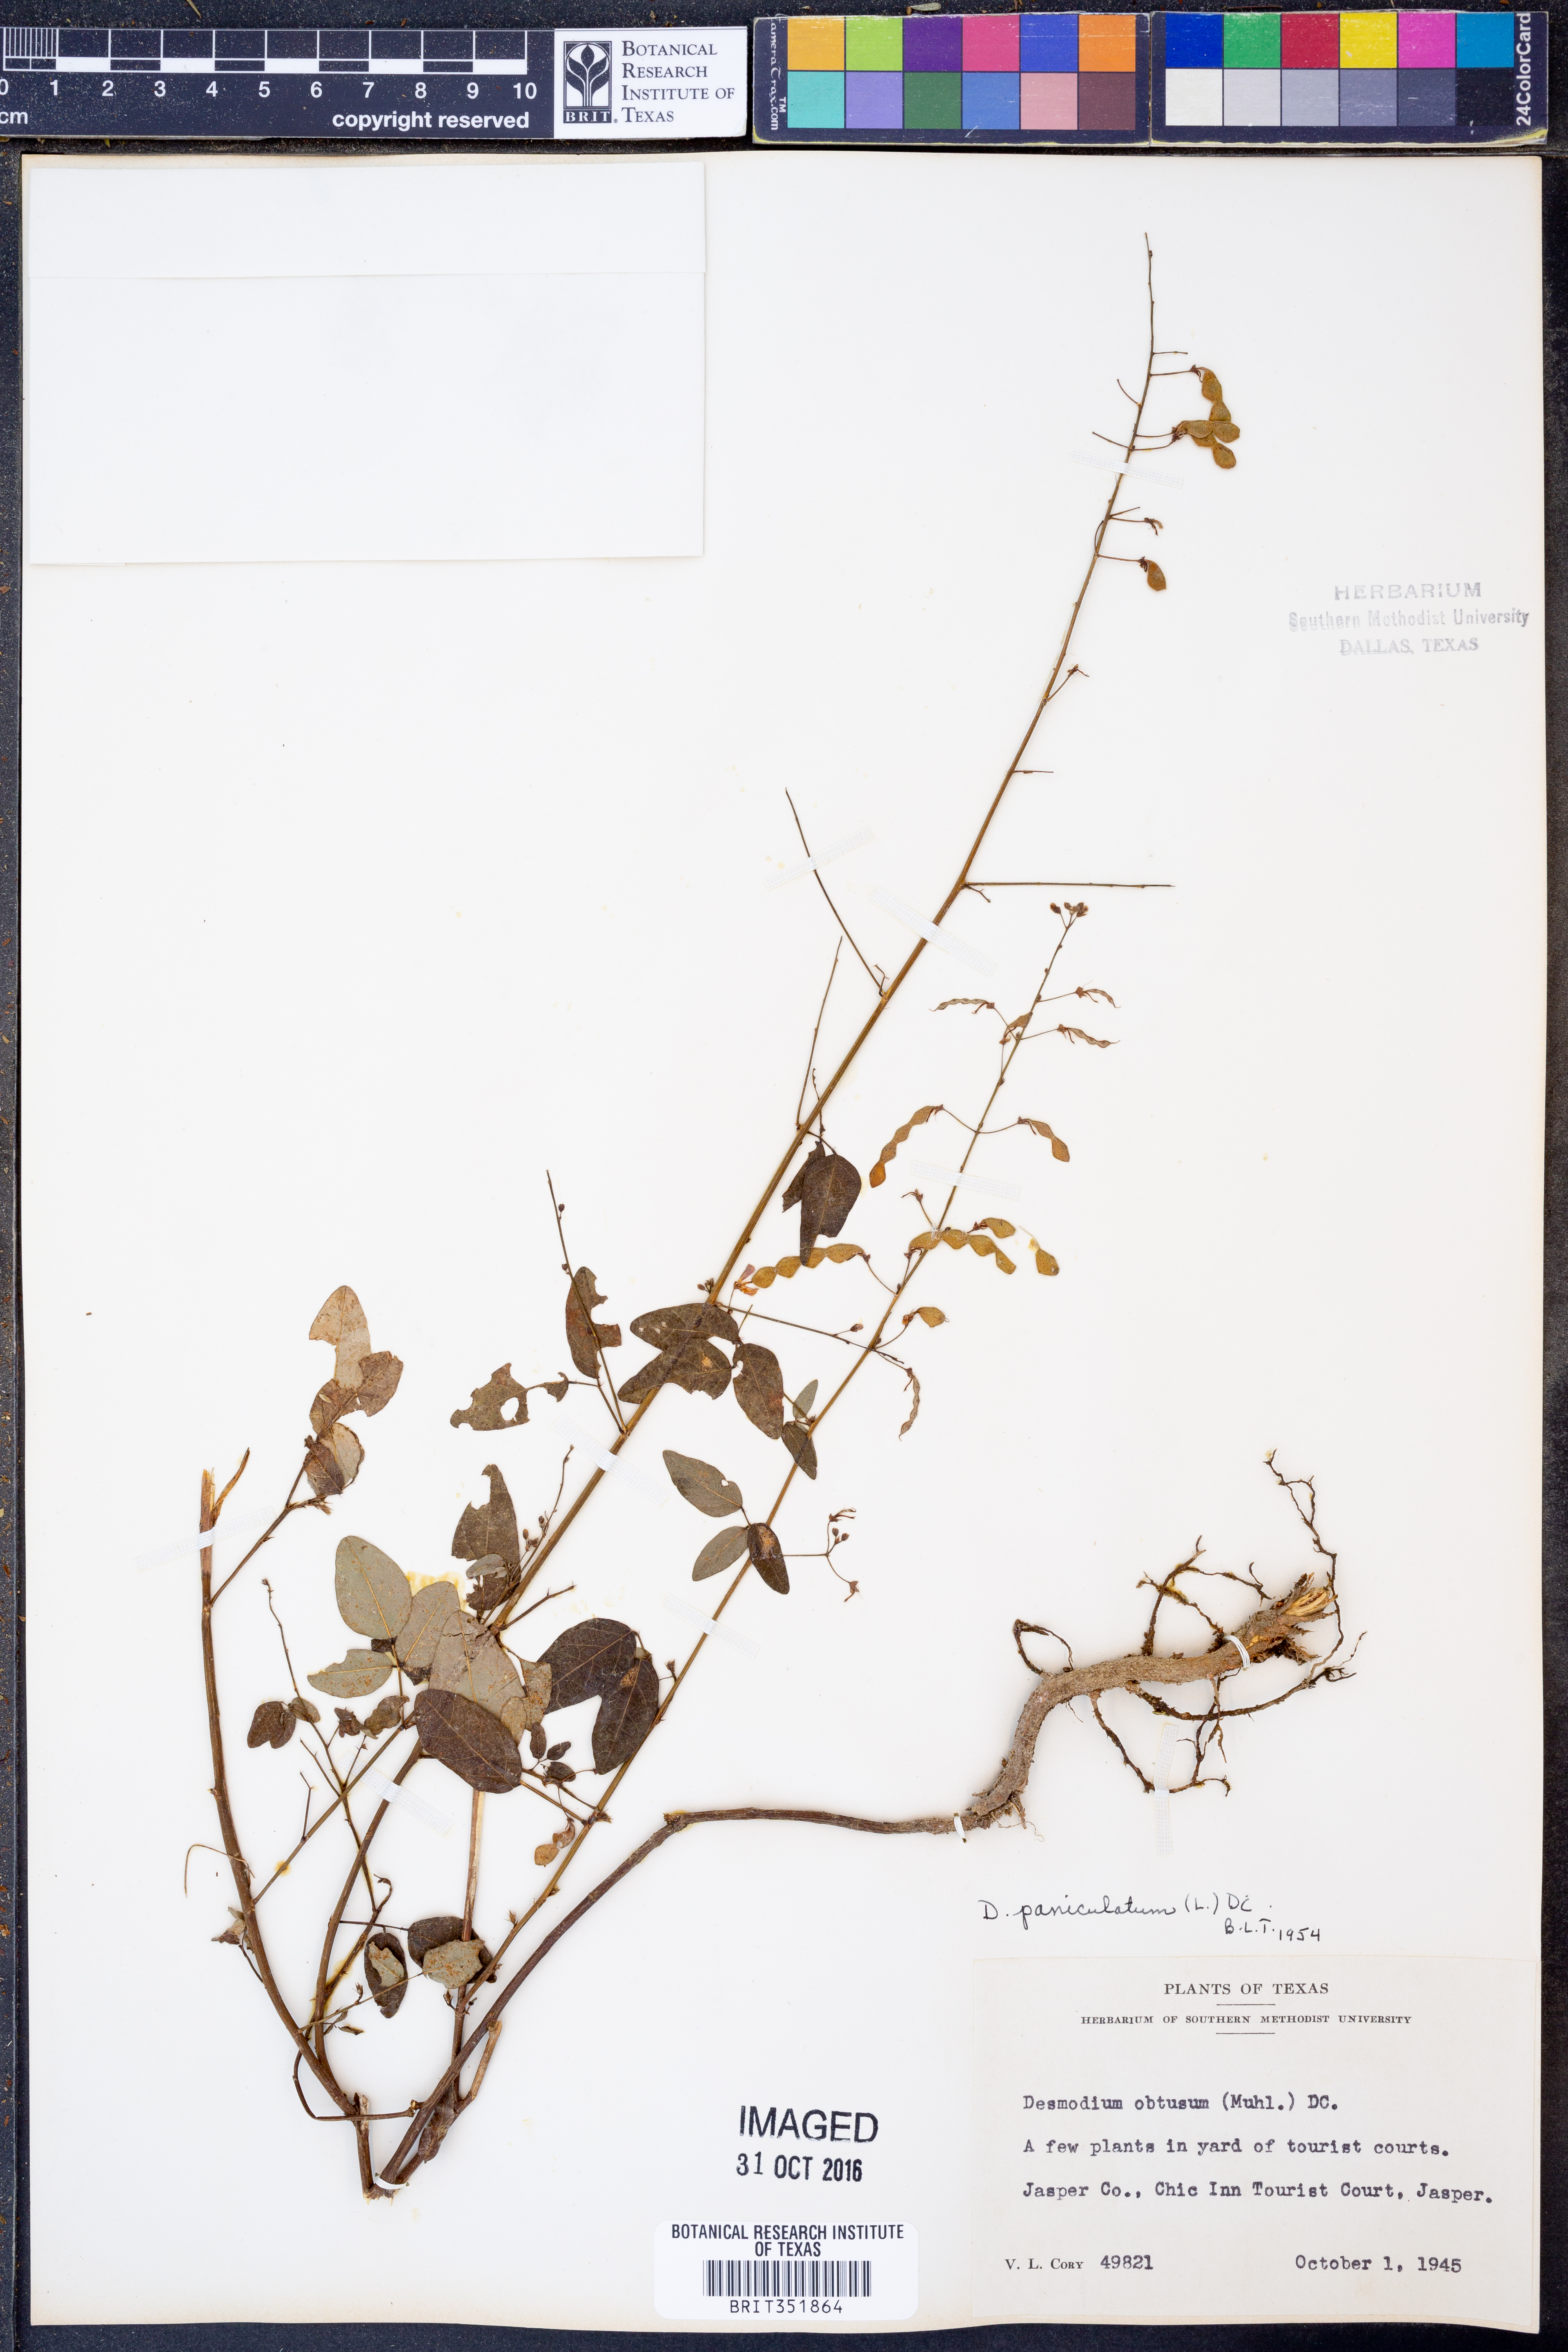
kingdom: Plantae
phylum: Tracheophyta
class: Magnoliopsida
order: Fabales
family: Fabaceae
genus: Desmodium
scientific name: Desmodium paniculatum
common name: Panicled tick-clover
